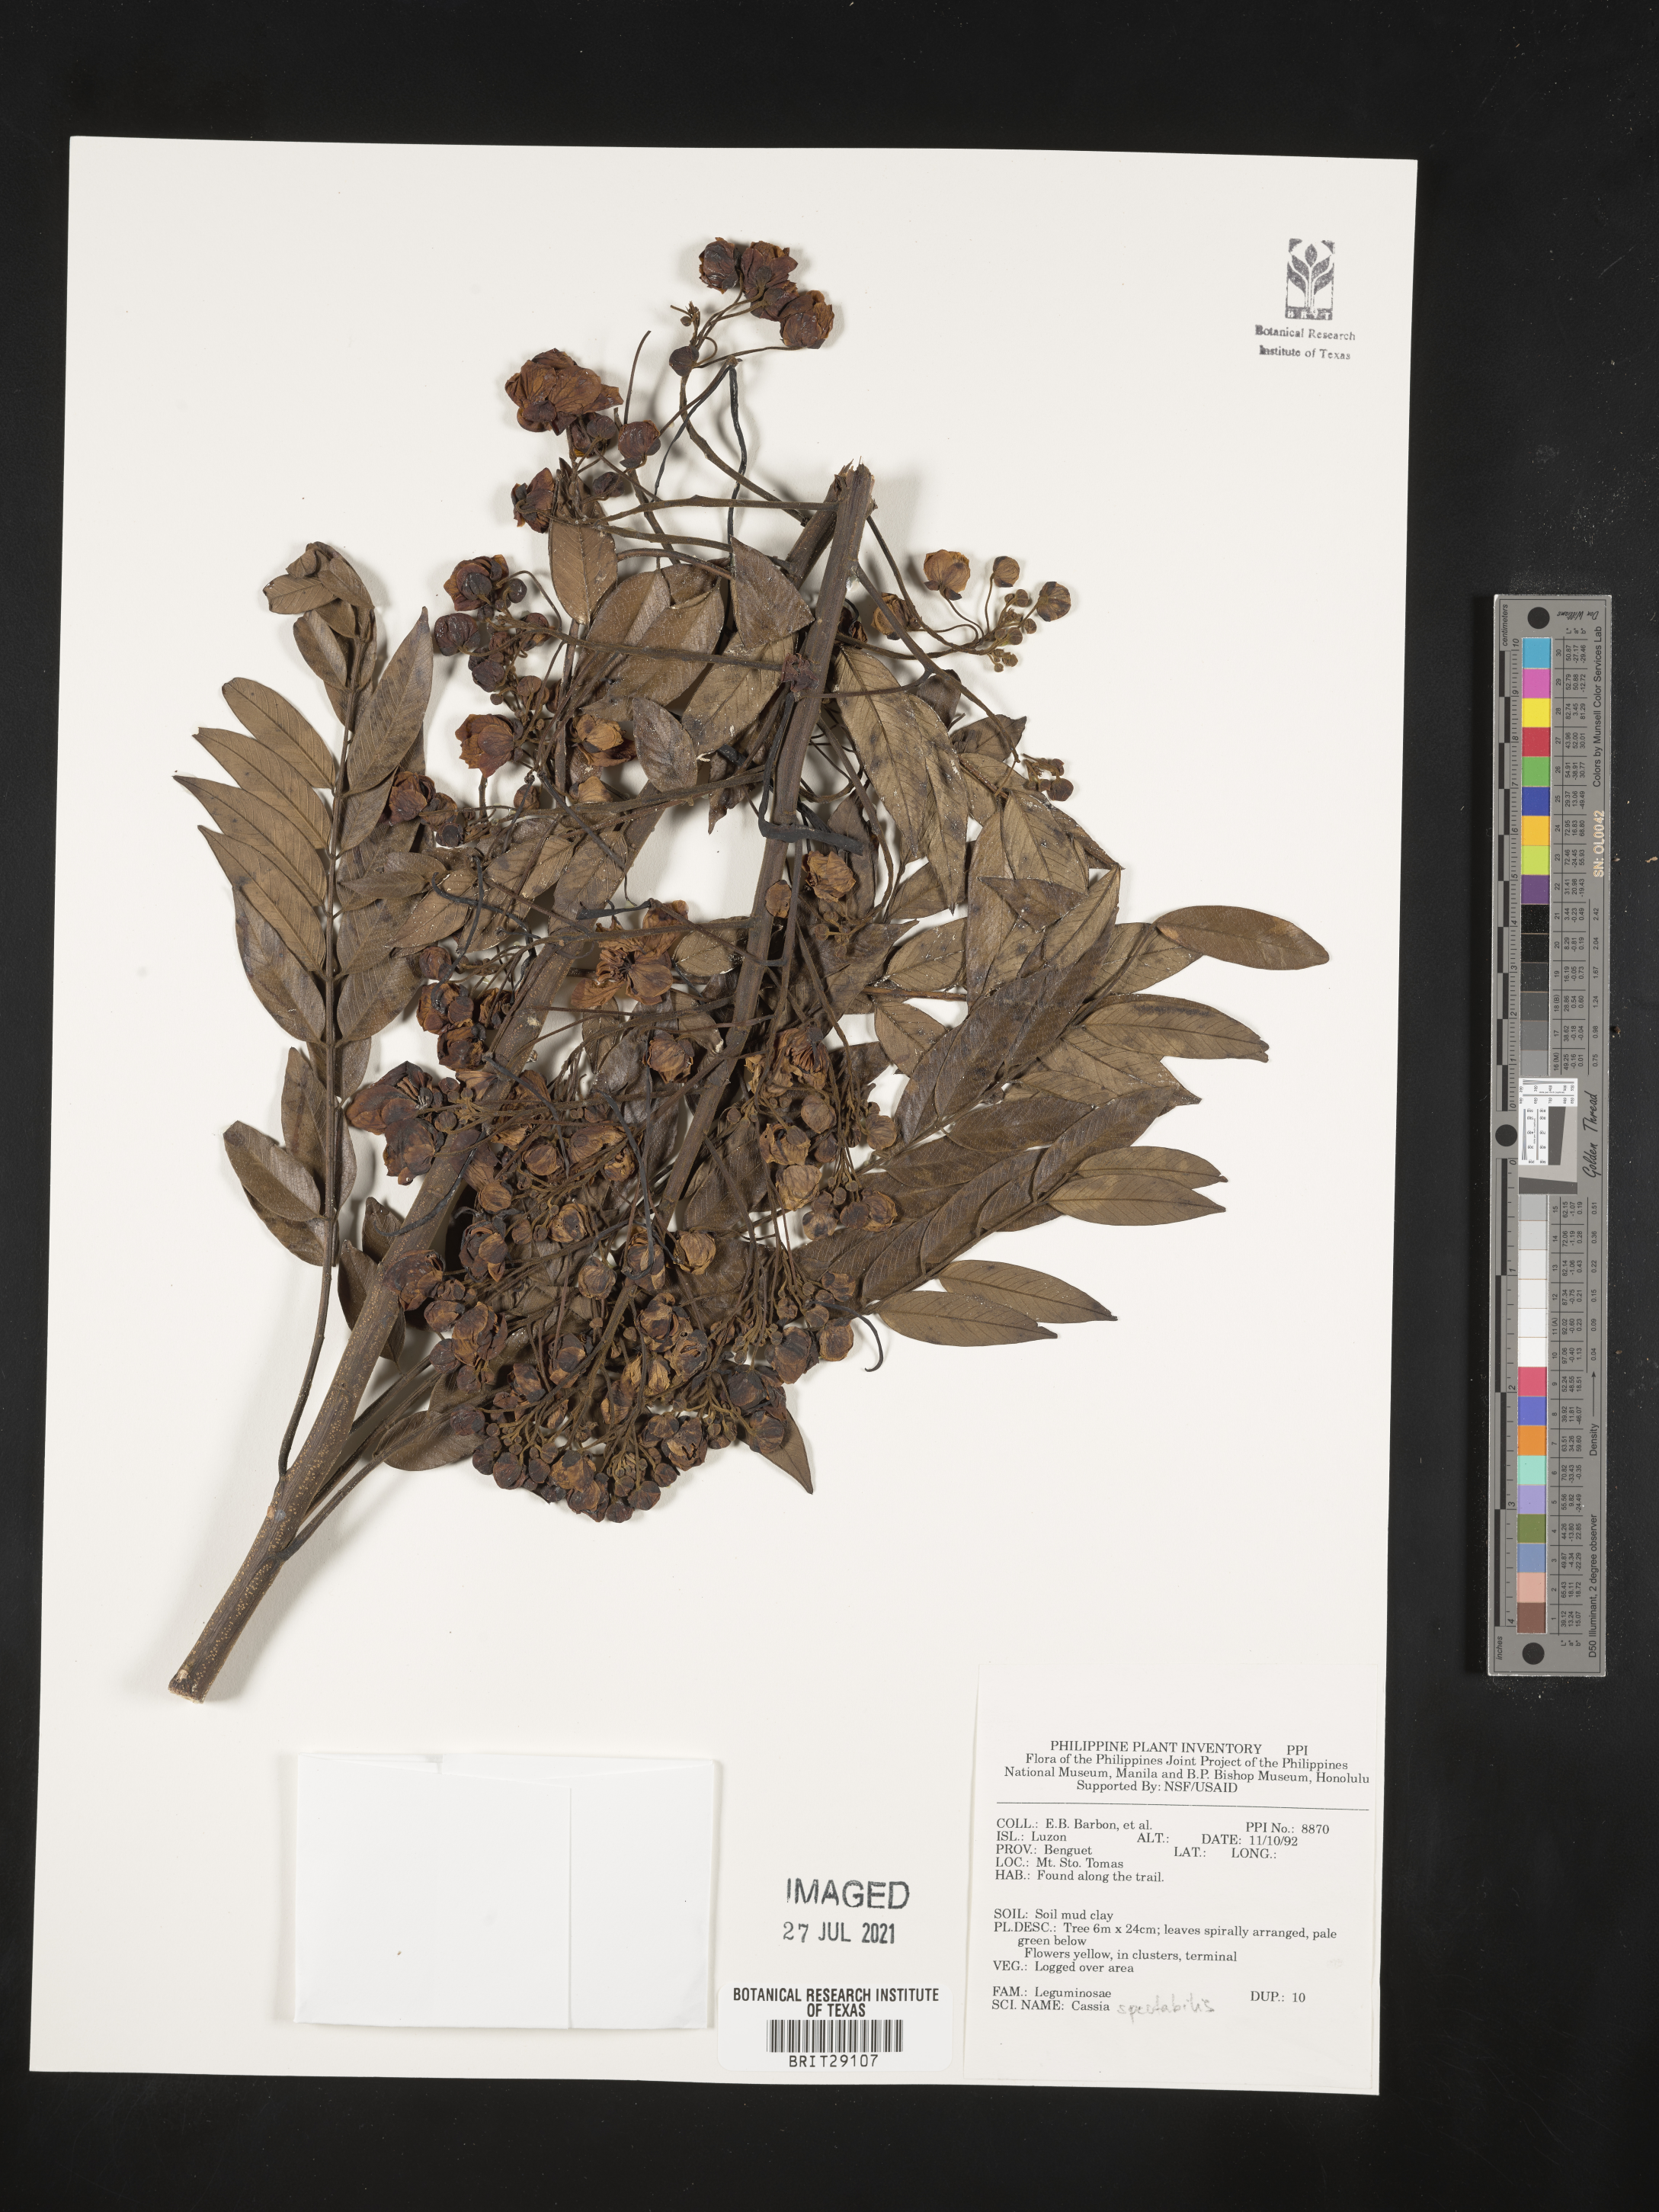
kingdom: Plantae
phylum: Tracheophyta
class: Magnoliopsida
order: Fabales
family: Fabaceae
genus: Senna
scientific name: Senna spectabilis
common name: Casia amarilla
